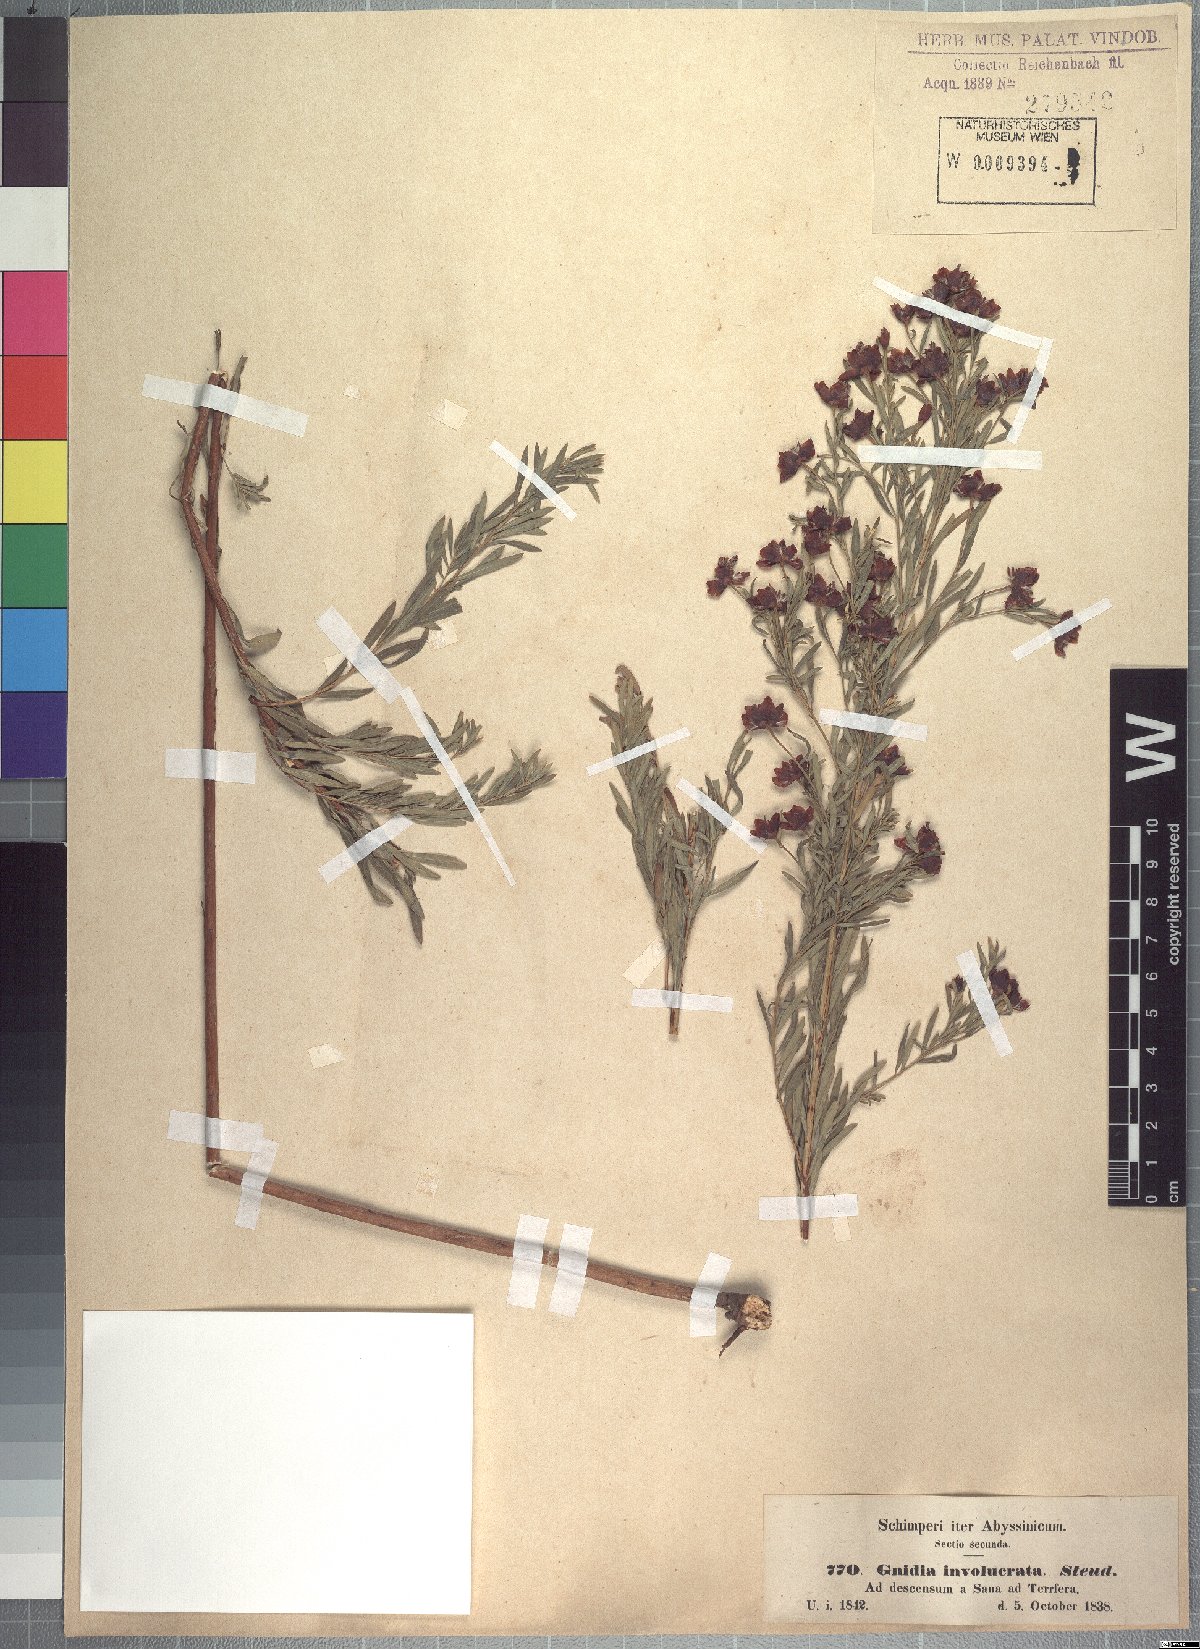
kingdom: Plantae
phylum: Tracheophyta
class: Magnoliopsida
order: Malvales
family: Thymelaeaceae
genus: Gnidia
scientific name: Gnidia involucrata
